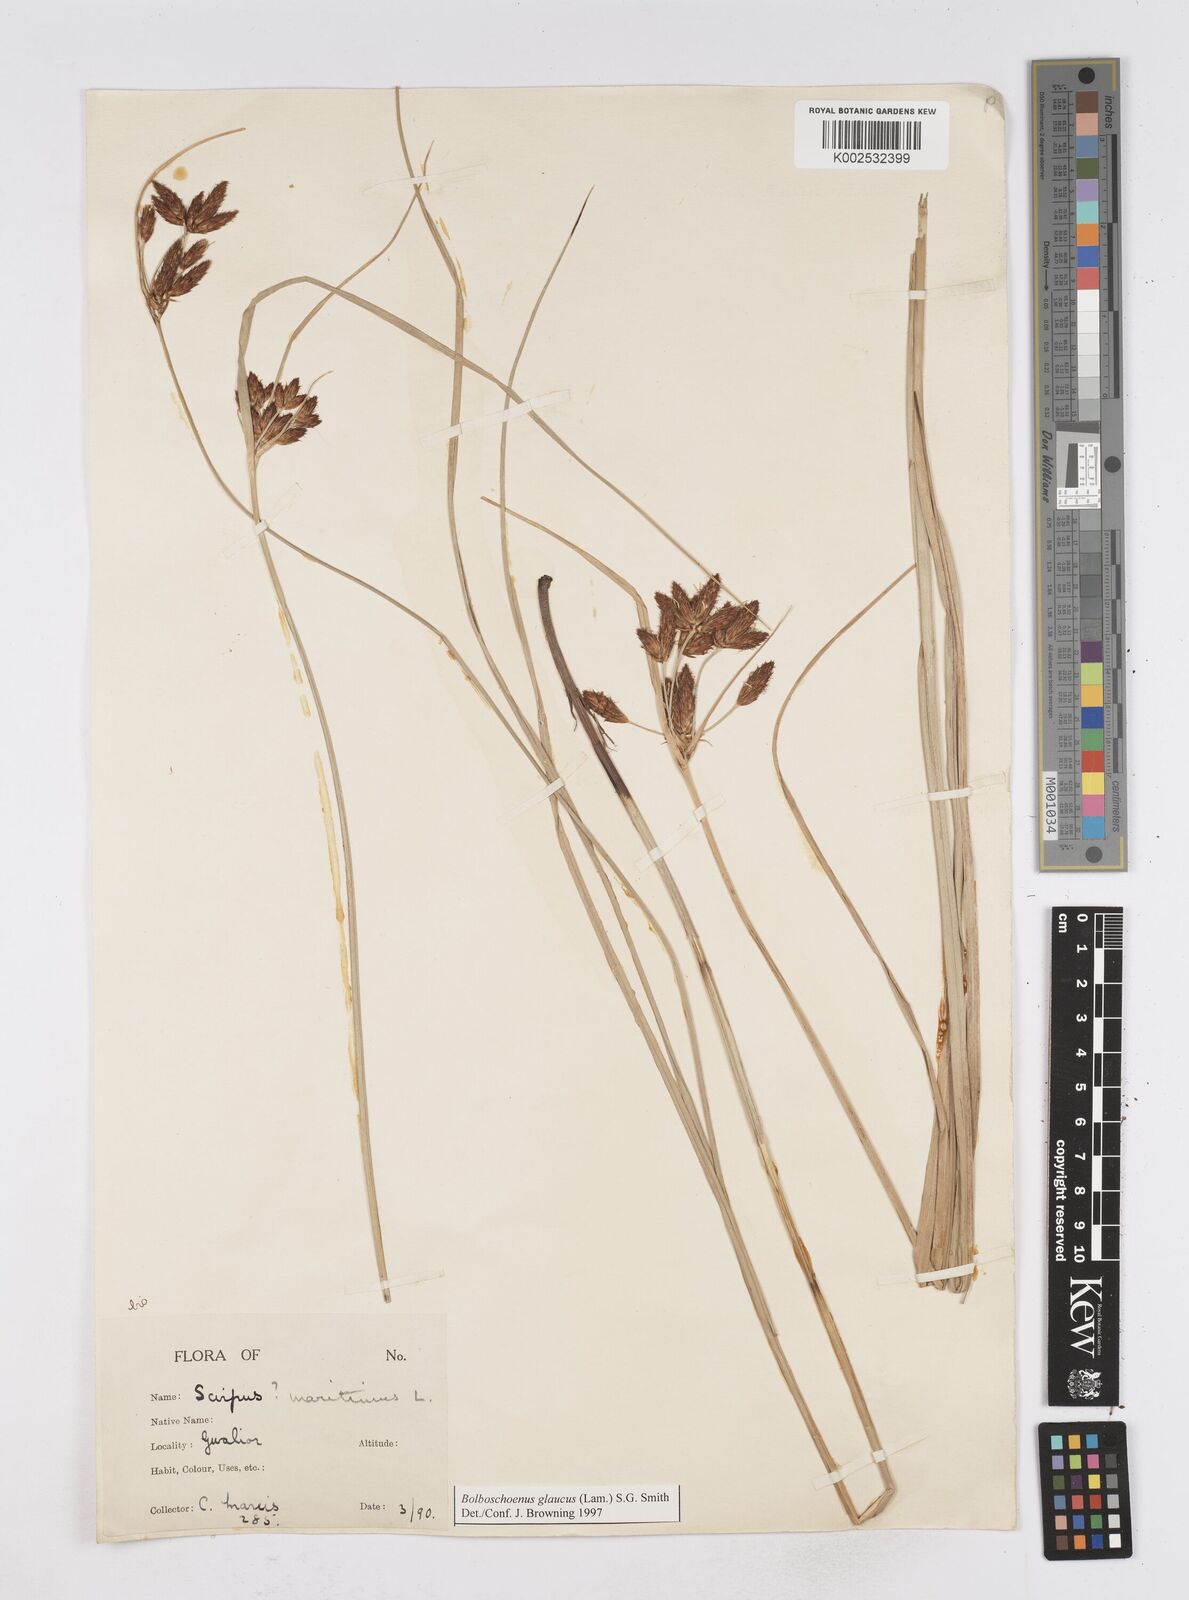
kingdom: Plantae
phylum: Tracheophyta
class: Liliopsida
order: Poales
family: Cyperaceae
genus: Bolboschoenus
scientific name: Bolboschoenus maritimus
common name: Sea club-rush
